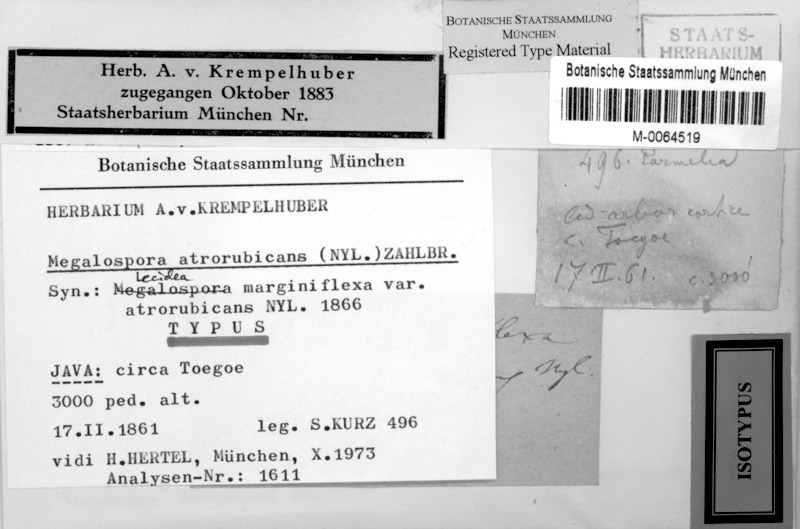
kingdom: Fungi
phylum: Ascomycota
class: Lecanoromycetes
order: Teloschistales
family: Megalosporaceae
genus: Megalospora
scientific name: Megalospora atrorubricans
